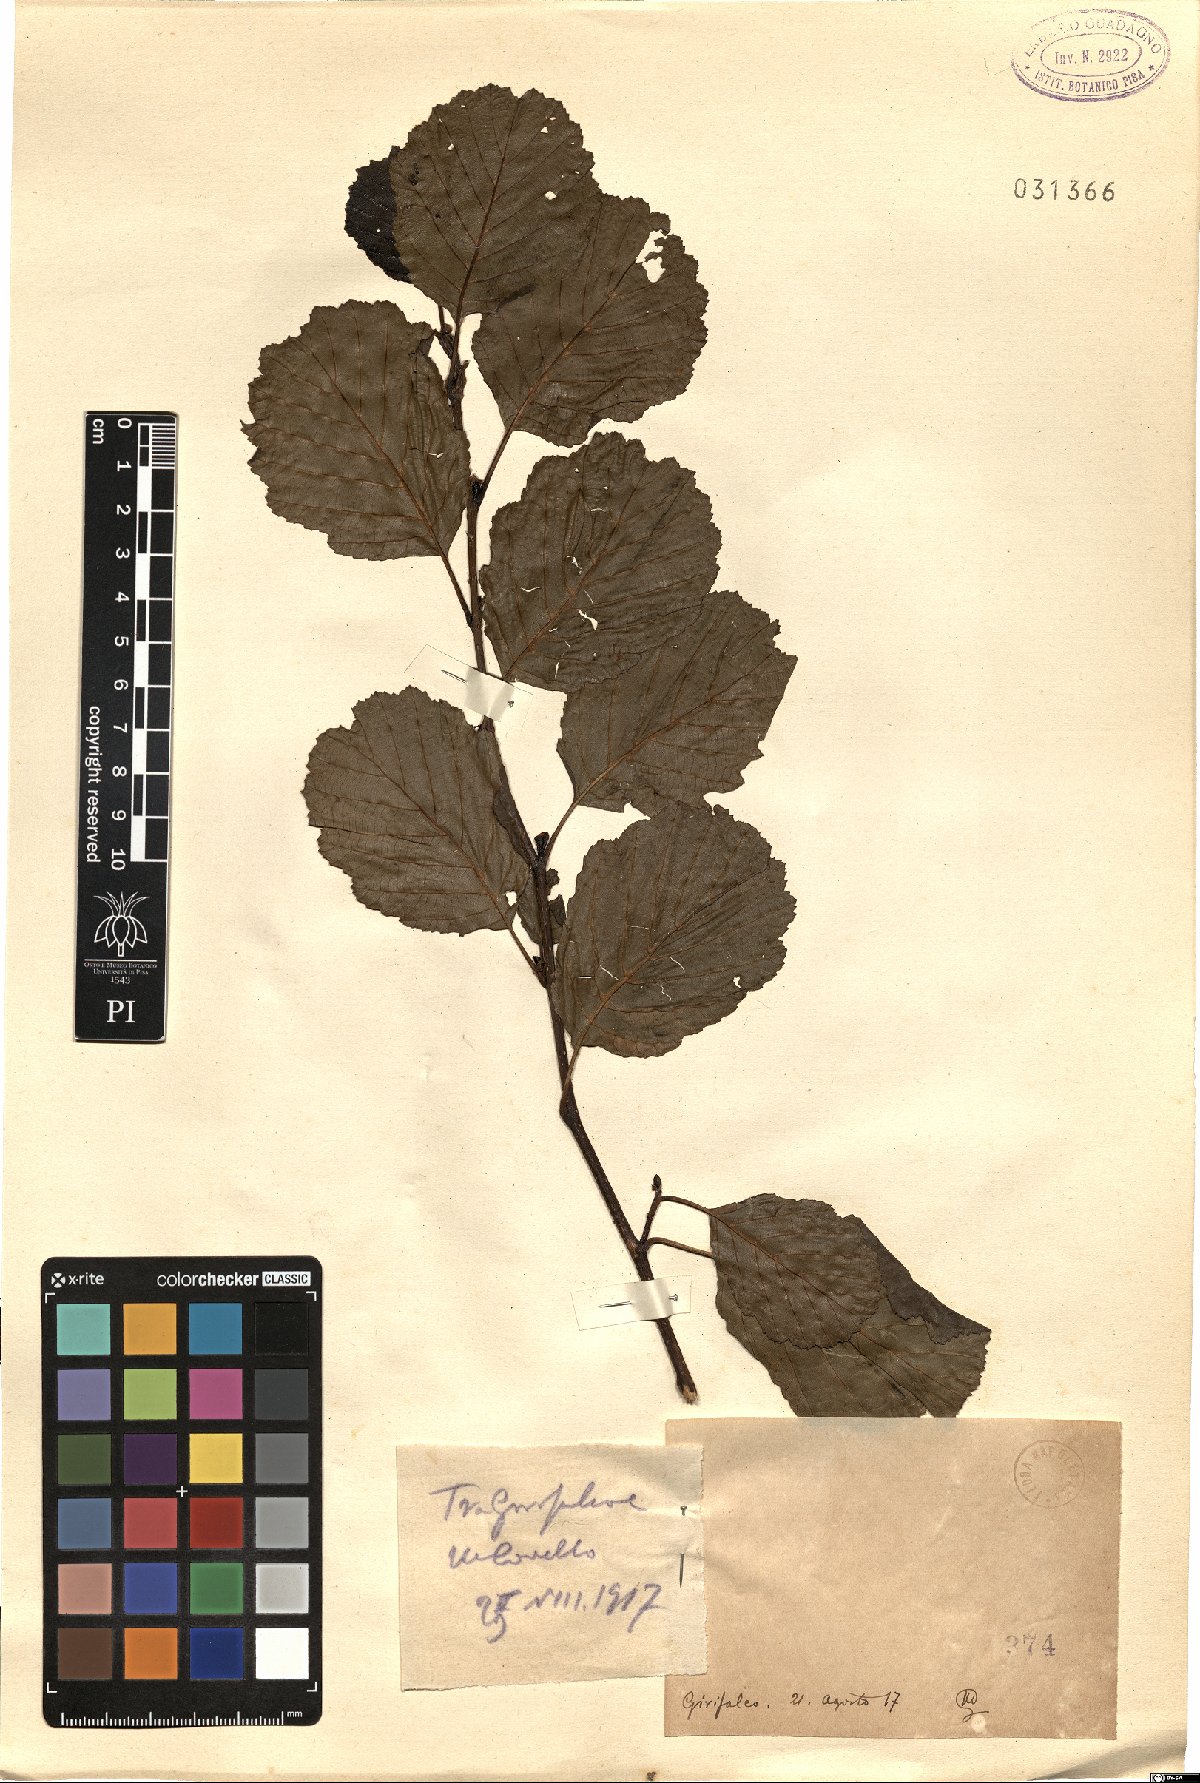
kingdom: Plantae
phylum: Tracheophyta
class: Magnoliopsida
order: Fagales
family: Betulaceae
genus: Alnus
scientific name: Alnus
